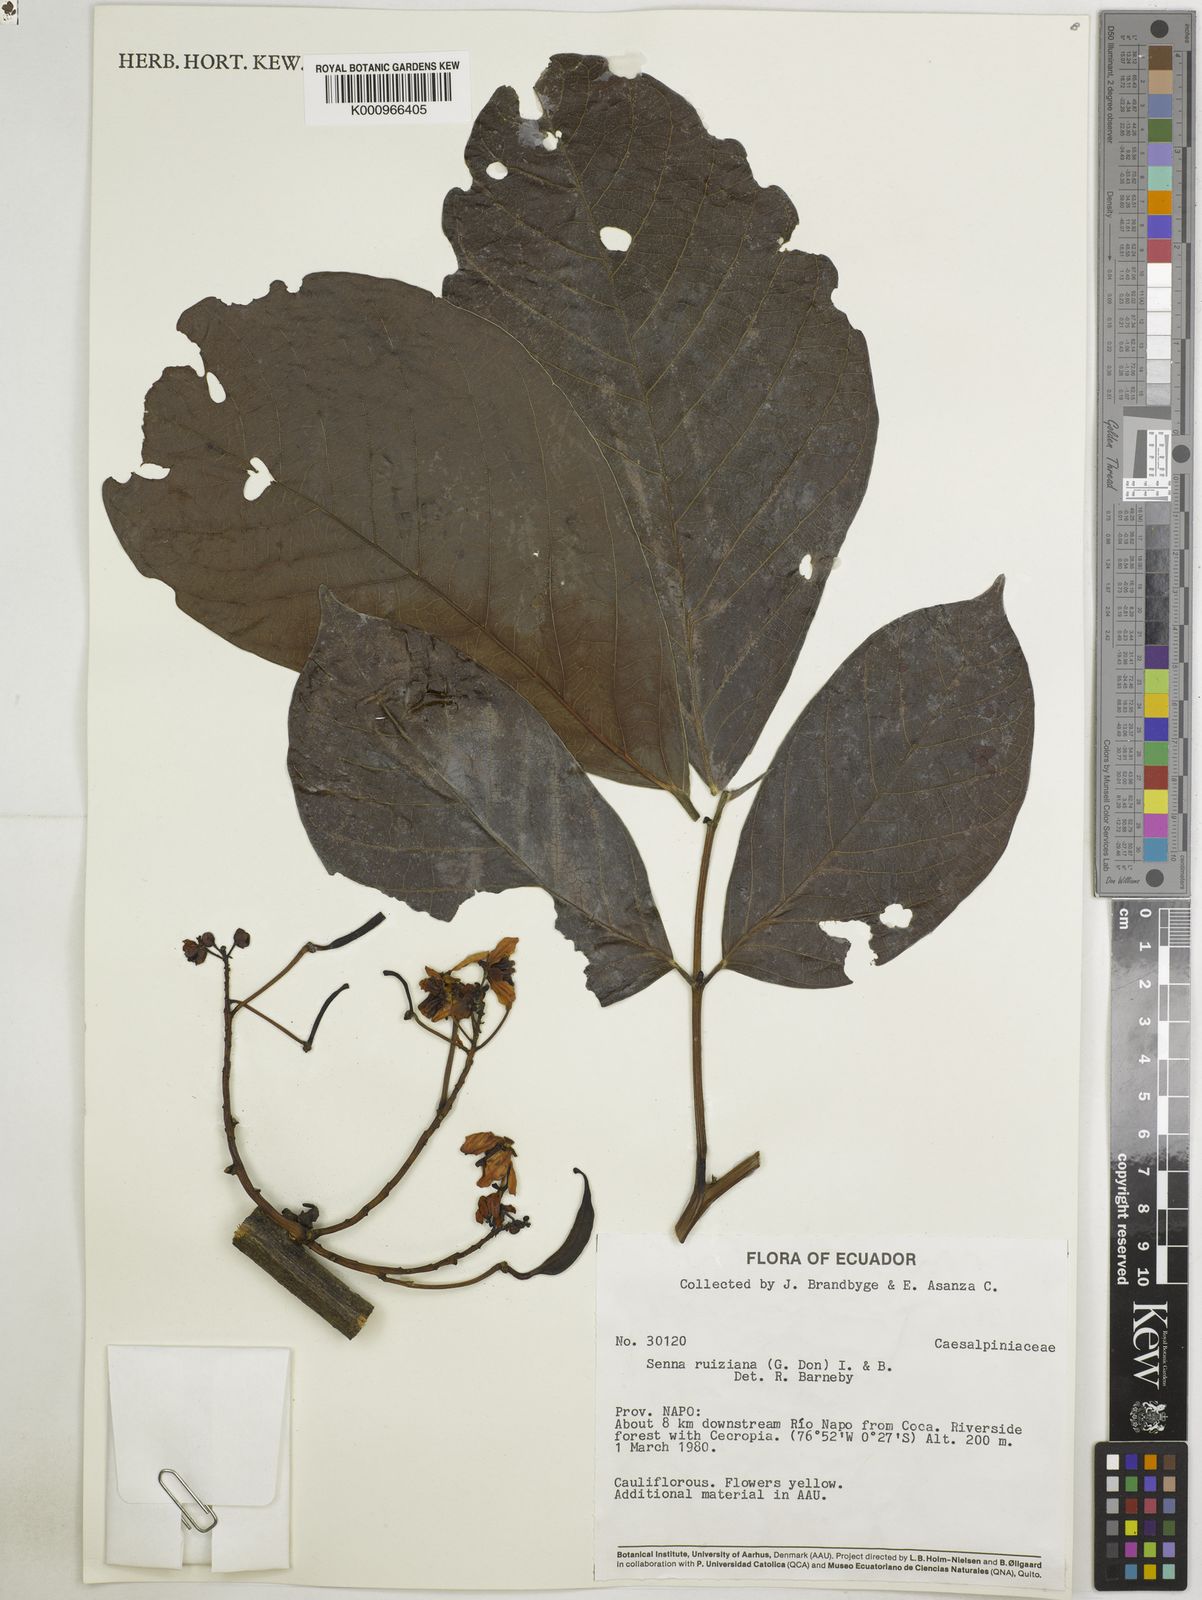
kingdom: Plantae
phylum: Tracheophyta
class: Magnoliopsida
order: Fabales
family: Fabaceae
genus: Senna
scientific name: Senna ruiziana
